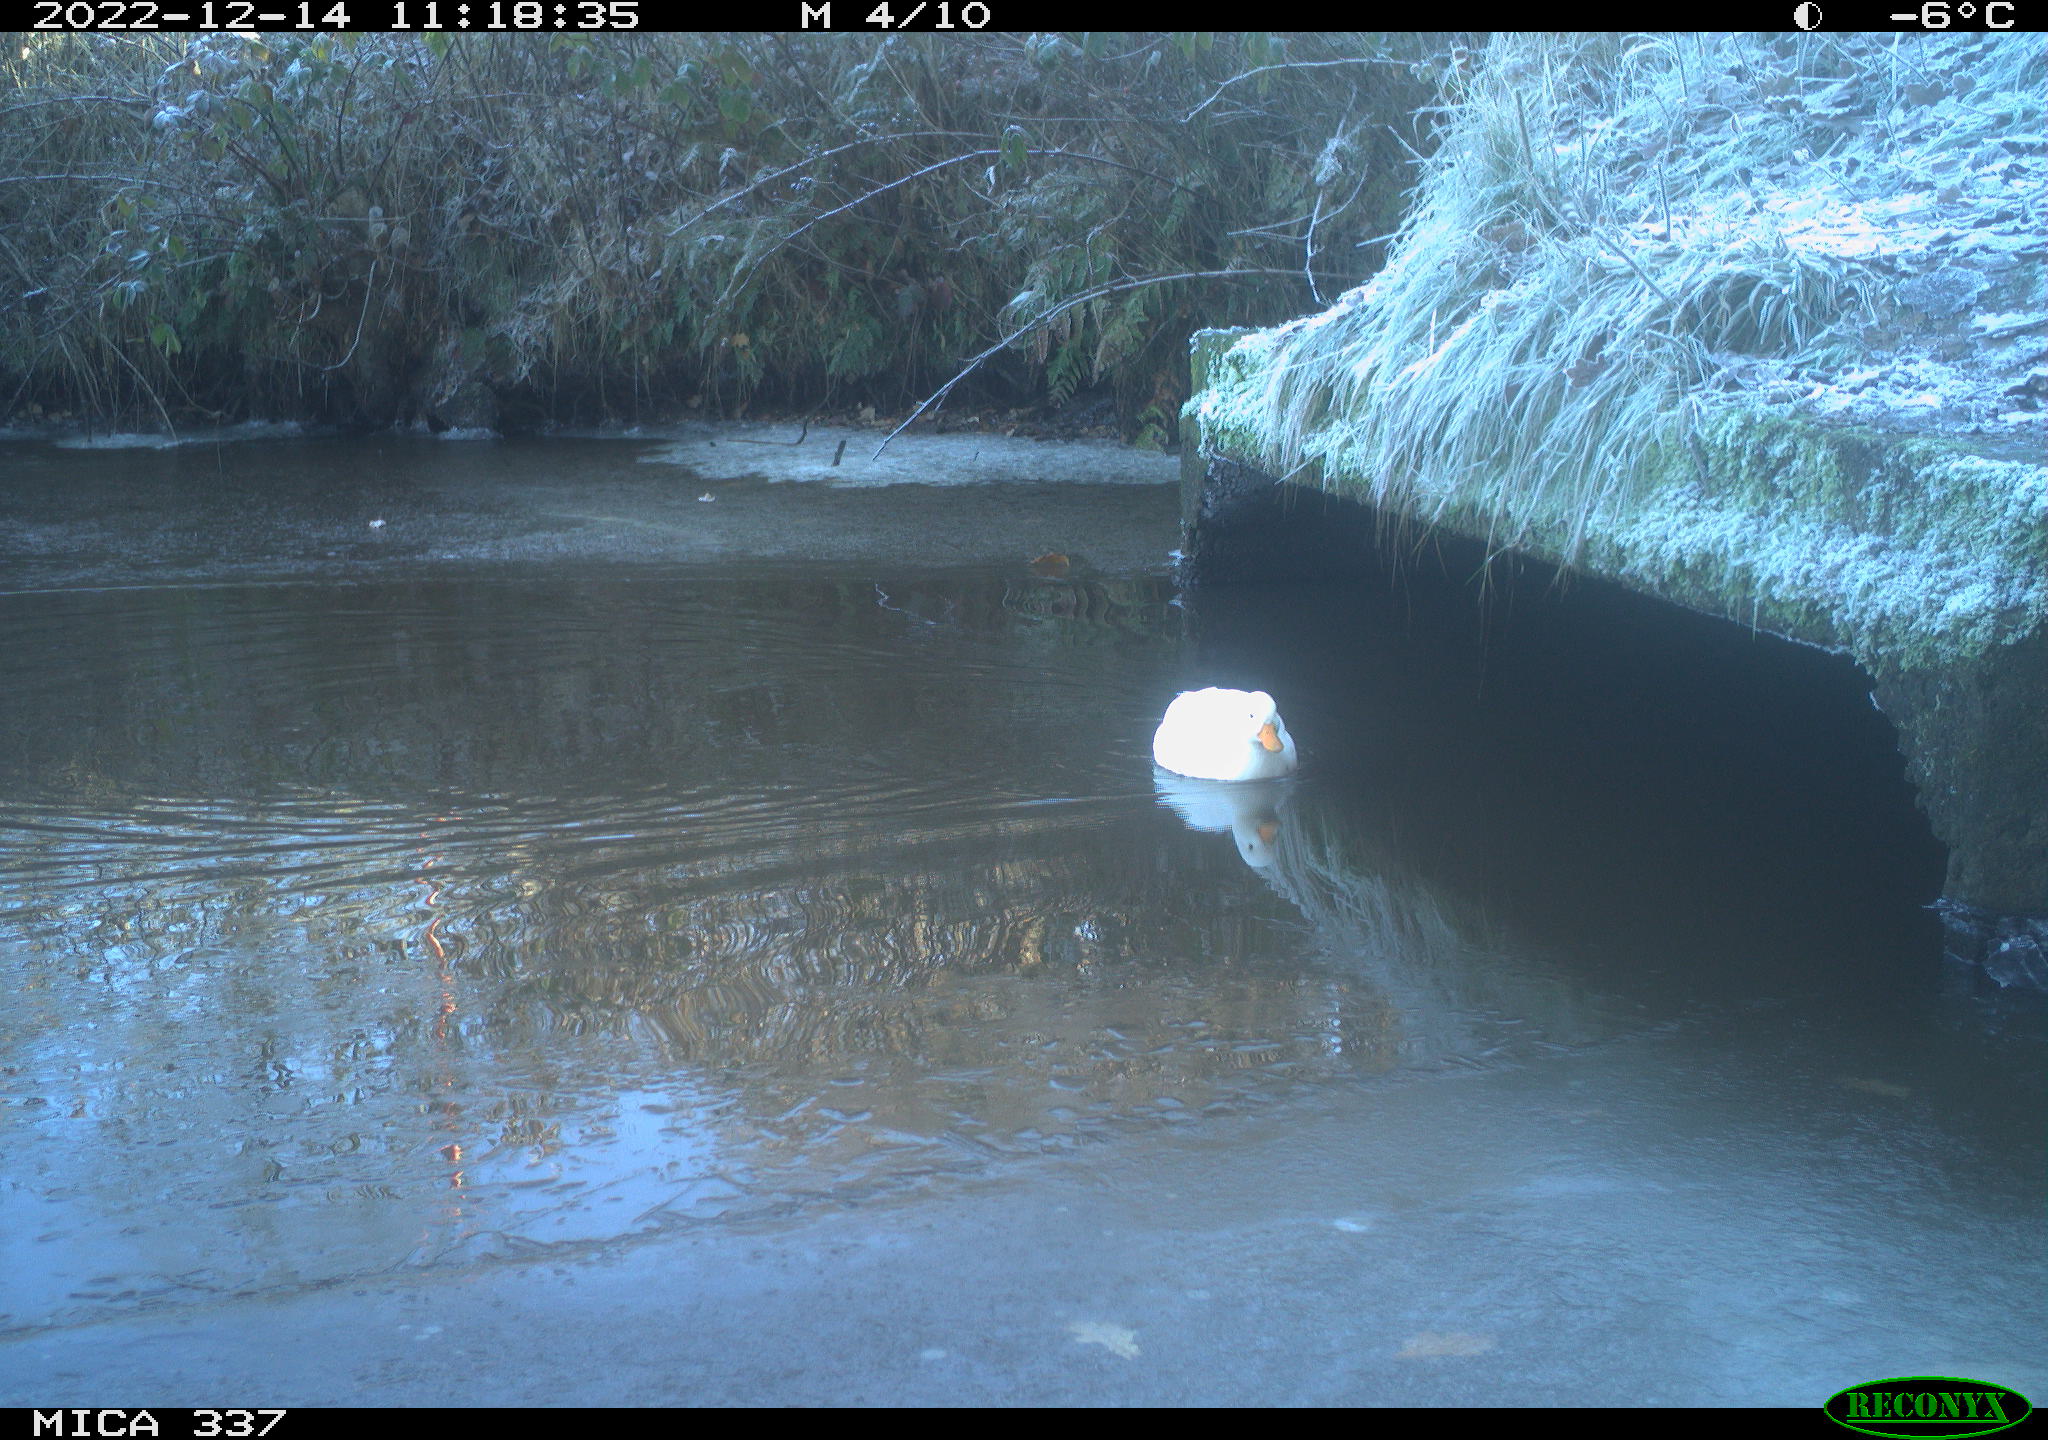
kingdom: Animalia
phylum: Chordata
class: Aves
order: Anseriformes
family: Anatidae
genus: Anas
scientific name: Anas
